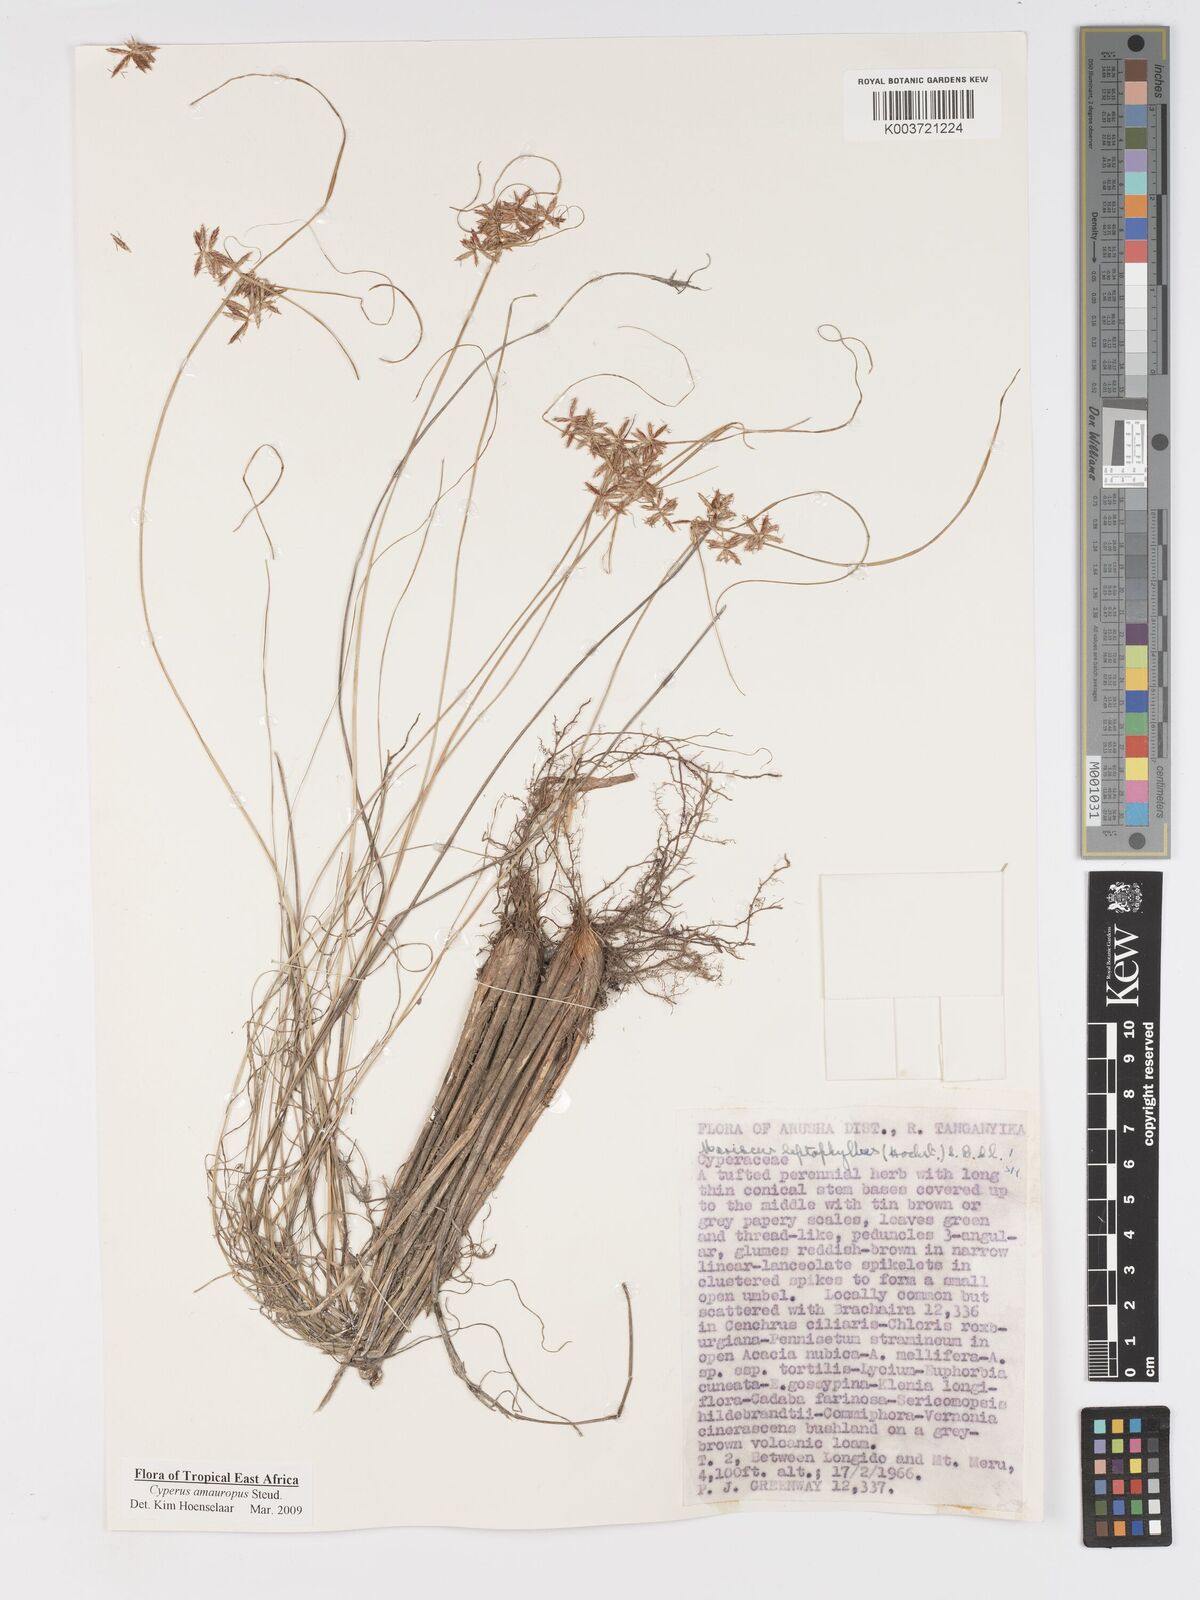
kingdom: Plantae
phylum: Tracheophyta
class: Liliopsida
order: Poales
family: Cyperaceae
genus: Cyperus
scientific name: Cyperus amauropus
